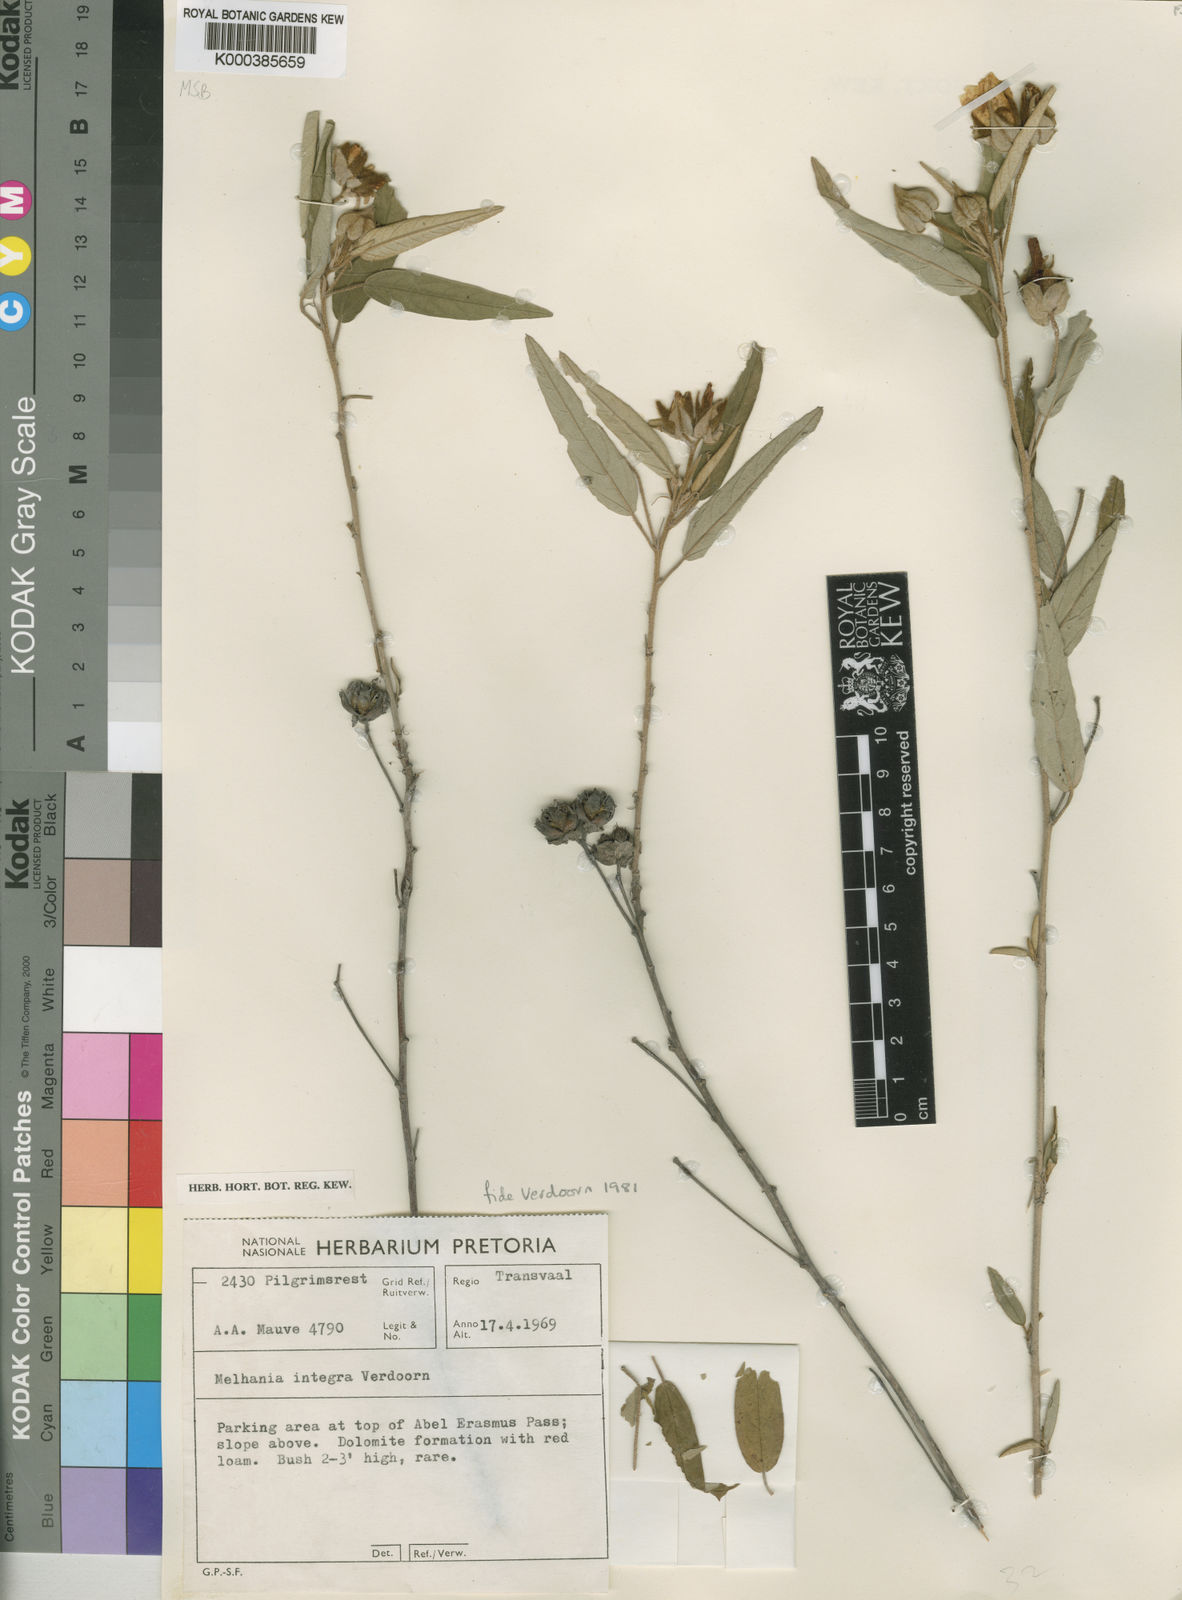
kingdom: Plantae
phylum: Tracheophyta
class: Magnoliopsida
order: Malvales
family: Malvaceae
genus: Melhania
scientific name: Melhania integra
